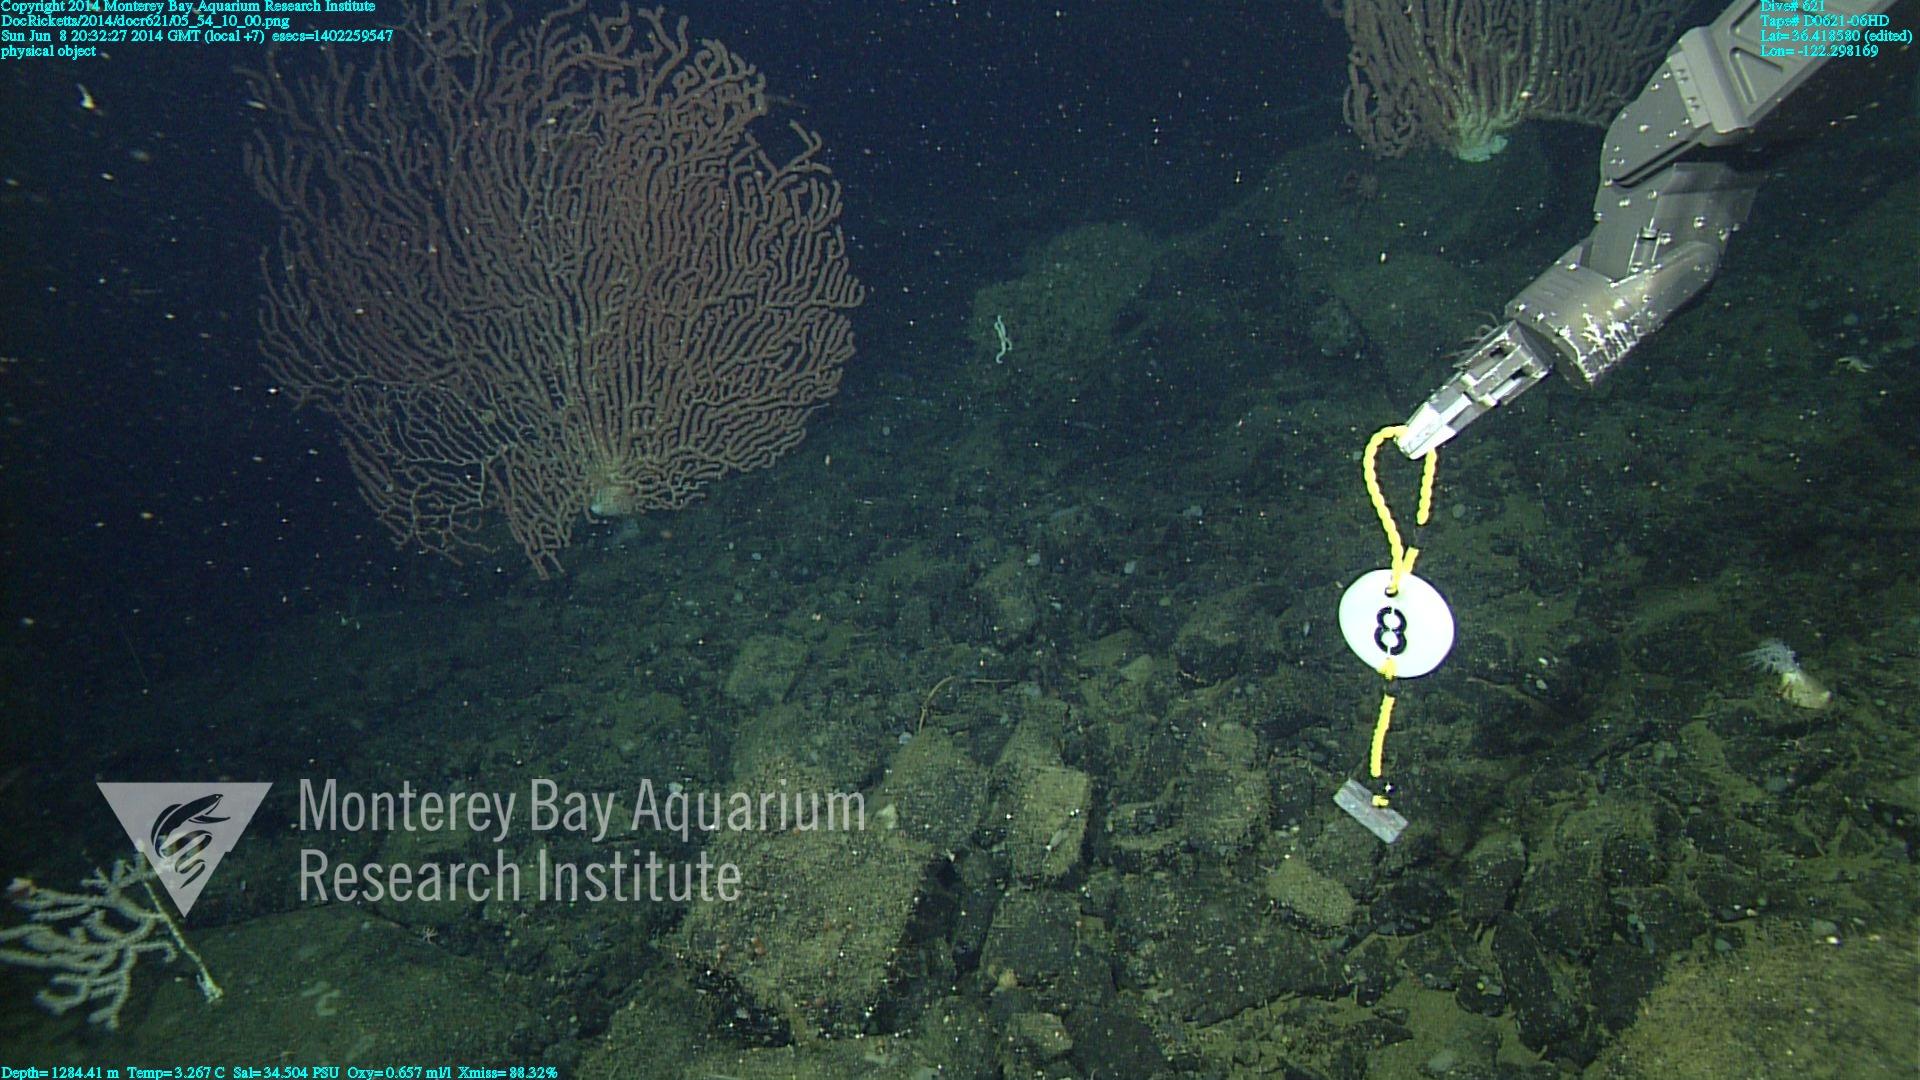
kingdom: Animalia
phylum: Cnidaria
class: Anthozoa
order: Scleralcyonacea
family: Keratoisididae
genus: Keratoisis
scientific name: Keratoisis
